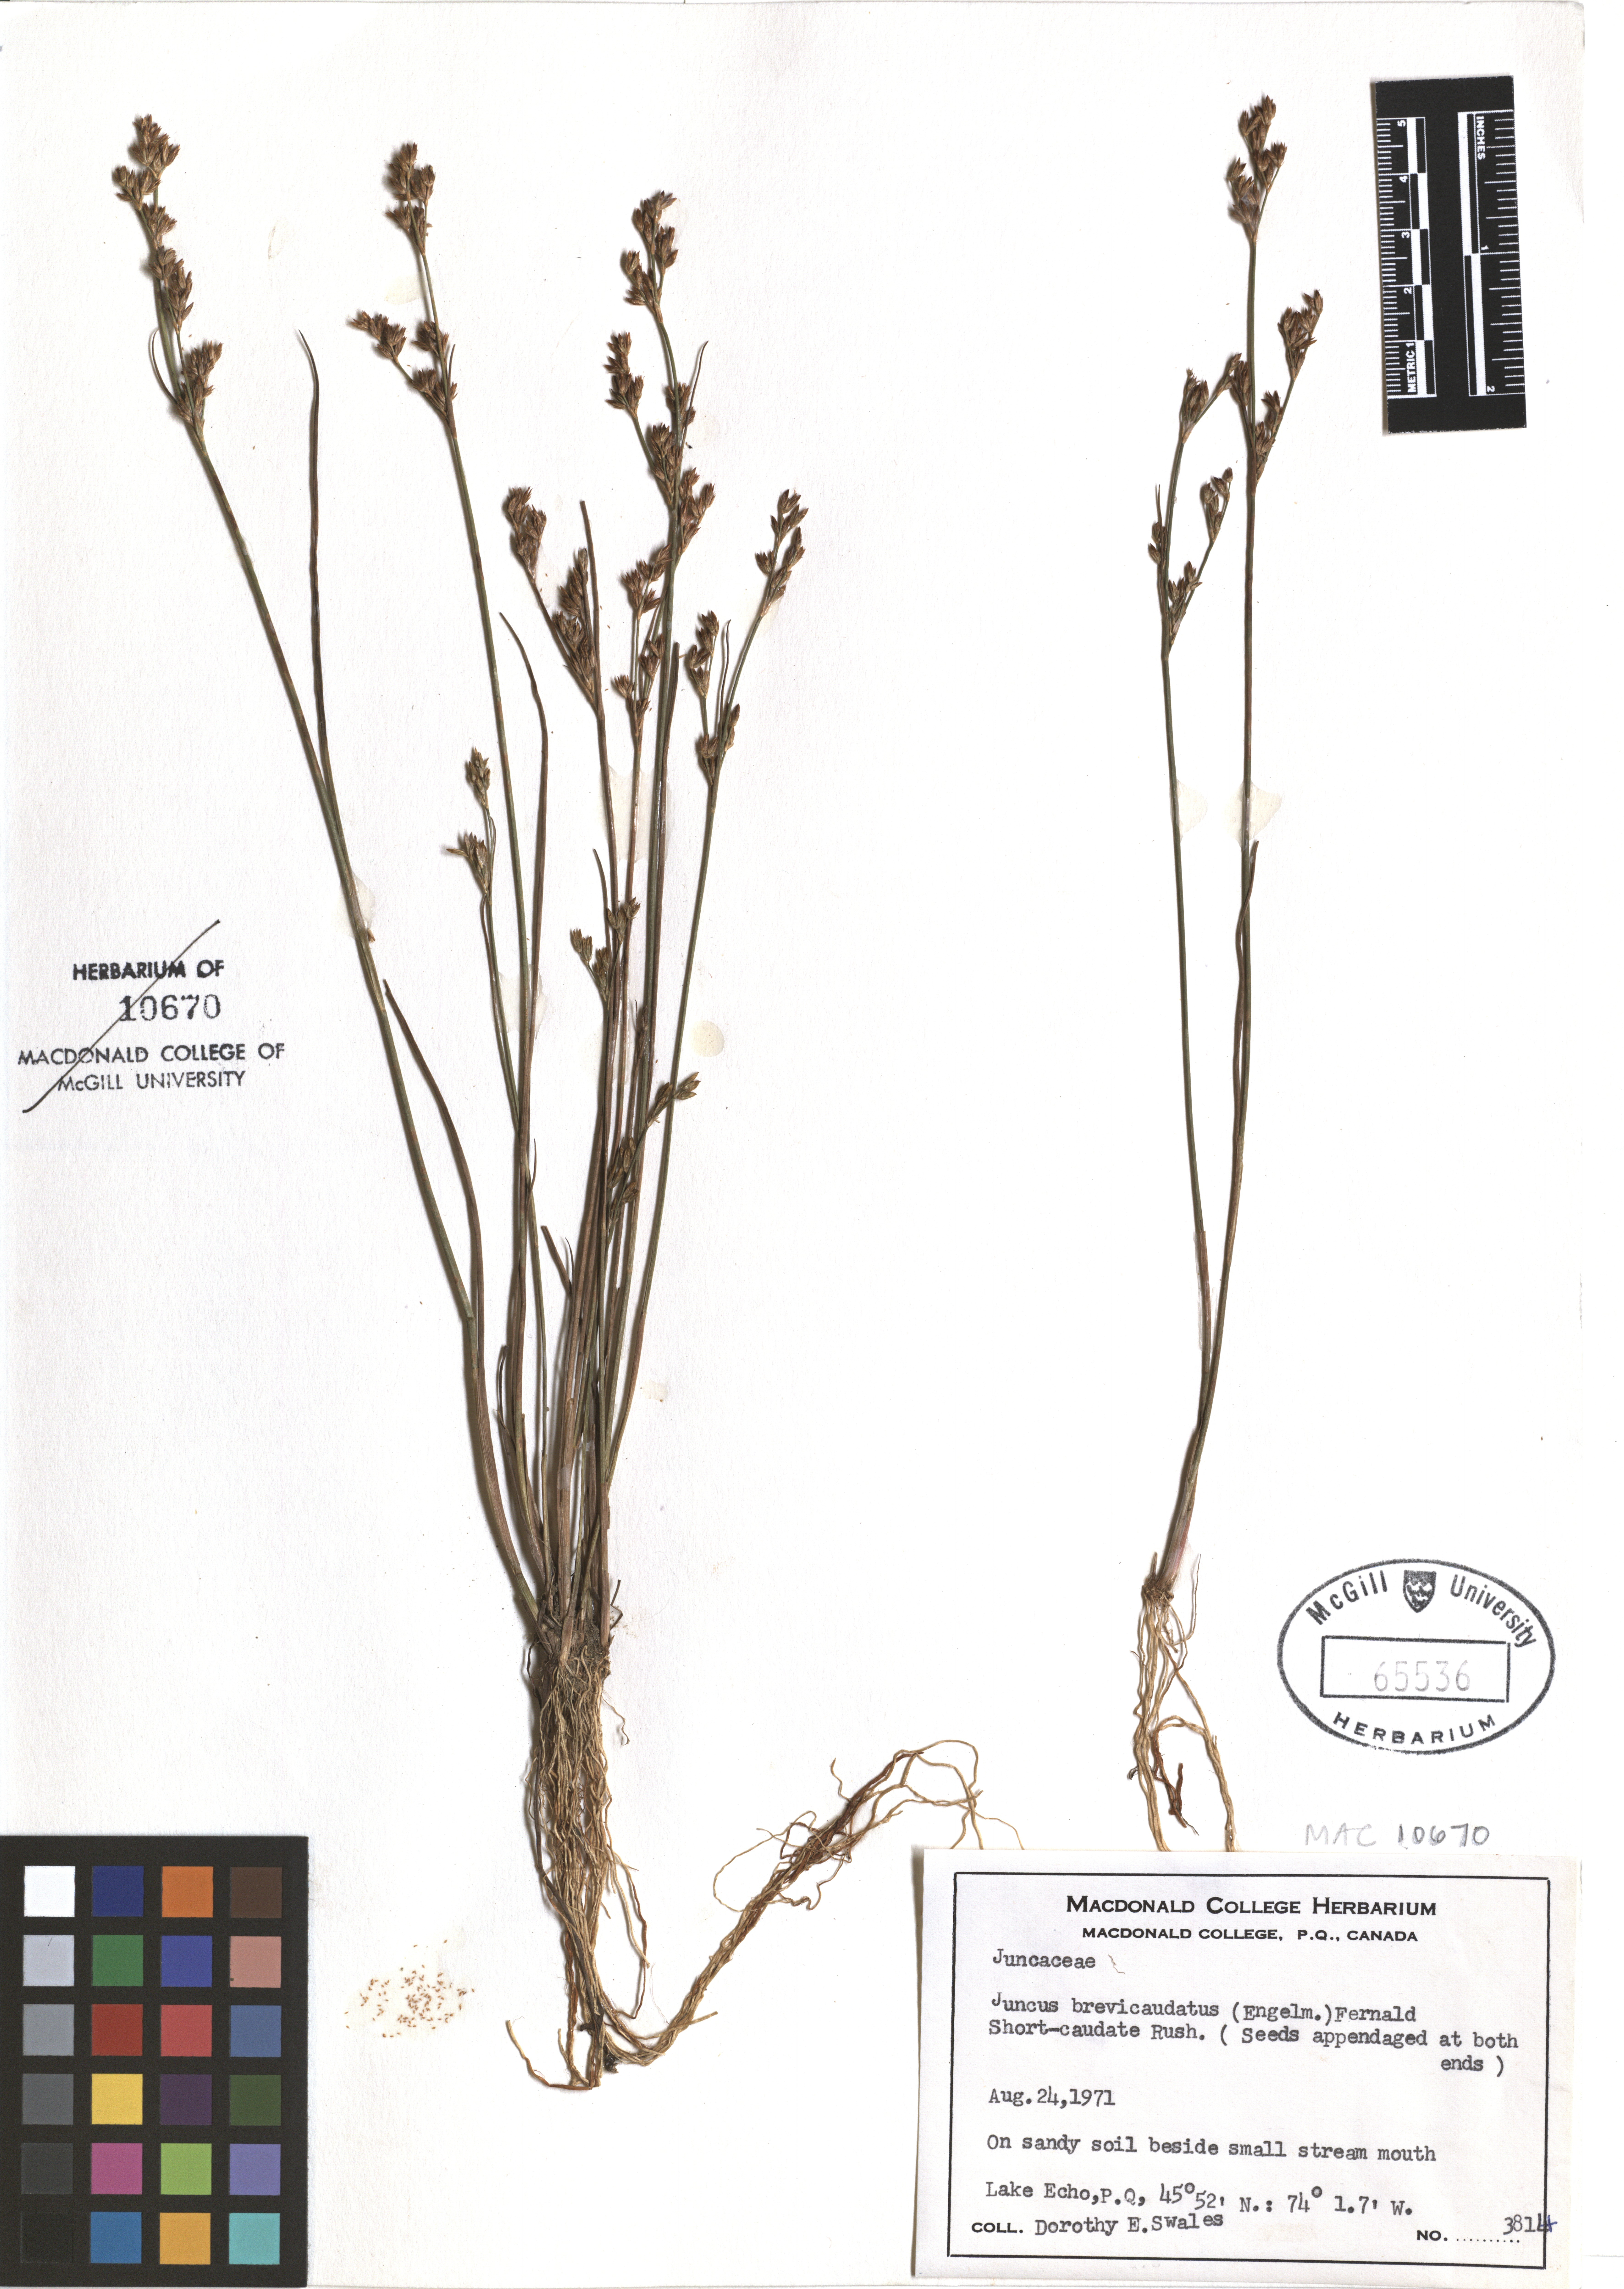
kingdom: Plantae
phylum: Tracheophyta
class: Liliopsida
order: Poales
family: Juncaceae
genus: Juncus
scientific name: Juncus brevicaudatus
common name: Narrow-panicle rush
